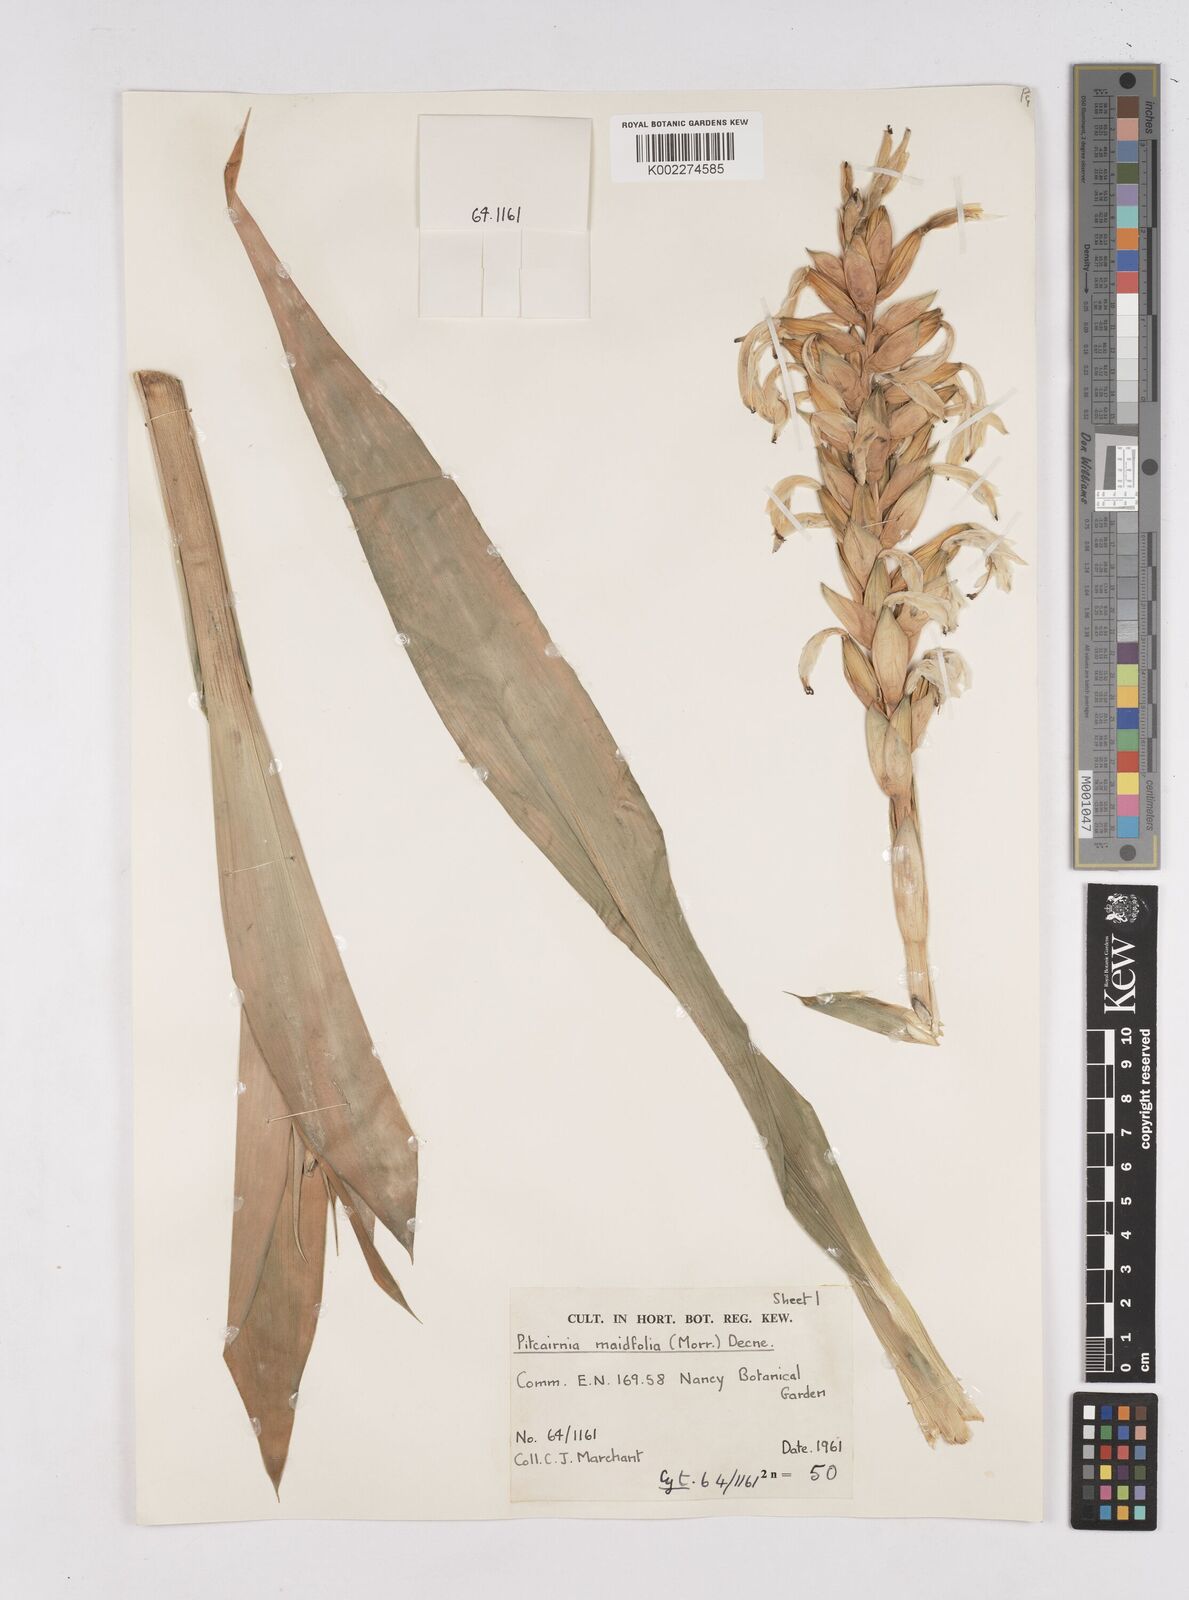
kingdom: Plantae
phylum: Tracheophyta
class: Liliopsida
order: Poales
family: Bromeliaceae
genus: Pitcairnia
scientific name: Pitcairnia maidifolia
